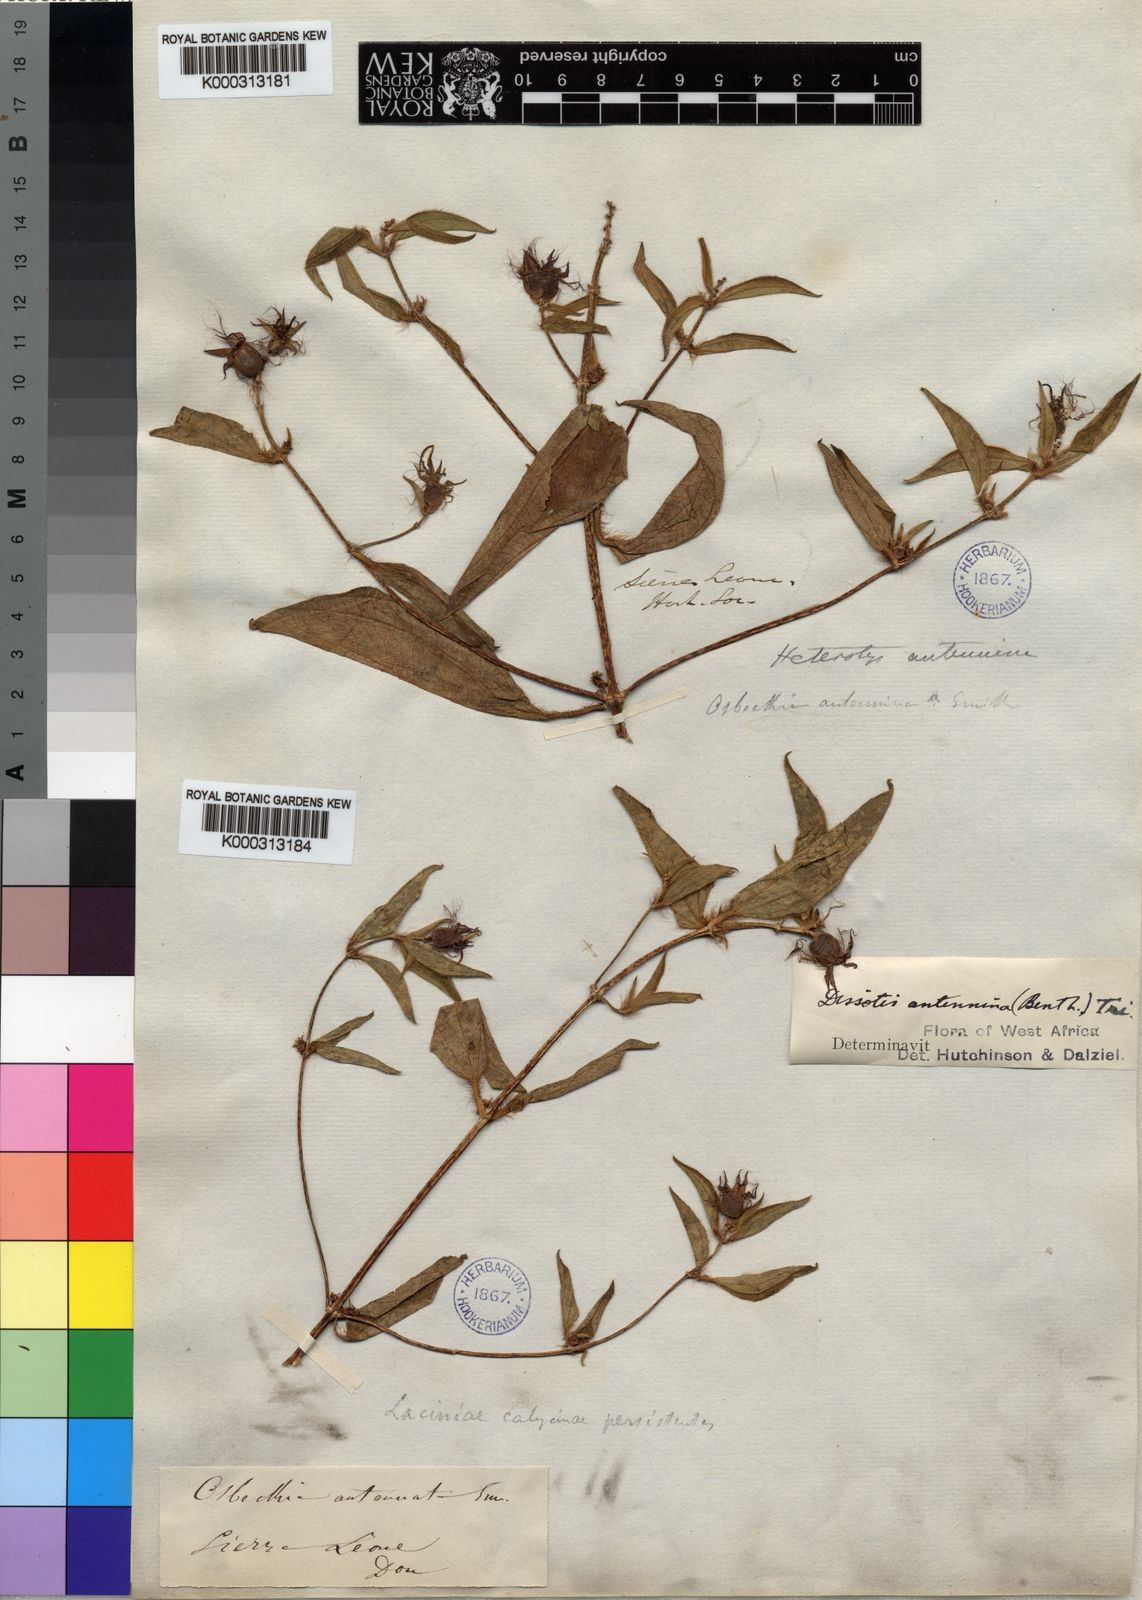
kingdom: Plantae
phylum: Tracheophyta
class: Magnoliopsida
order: Myrtales
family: Melastomataceae
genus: Guyonia
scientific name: Guyonia antennina
